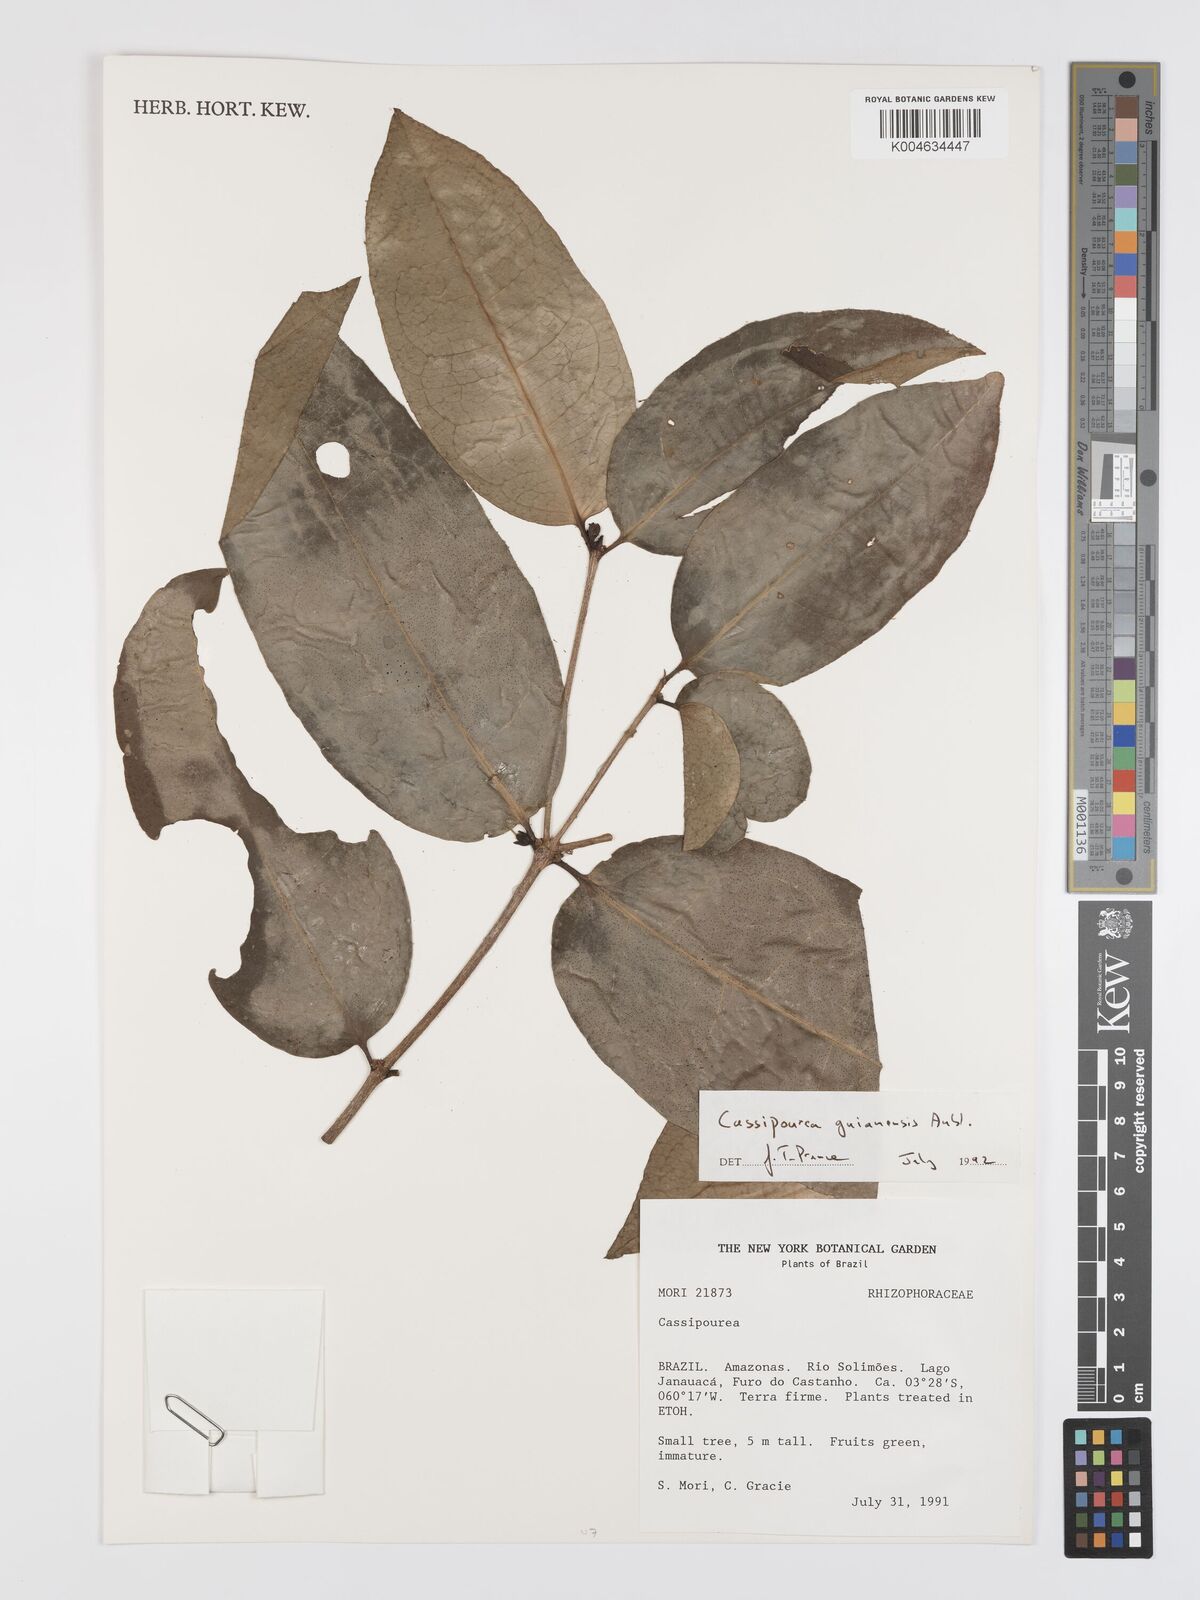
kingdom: Plantae
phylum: Tracheophyta
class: Magnoliopsida
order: Malpighiales
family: Rhizophoraceae
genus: Cassipourea
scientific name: Cassipourea guianensis
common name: Bastard waterwood
